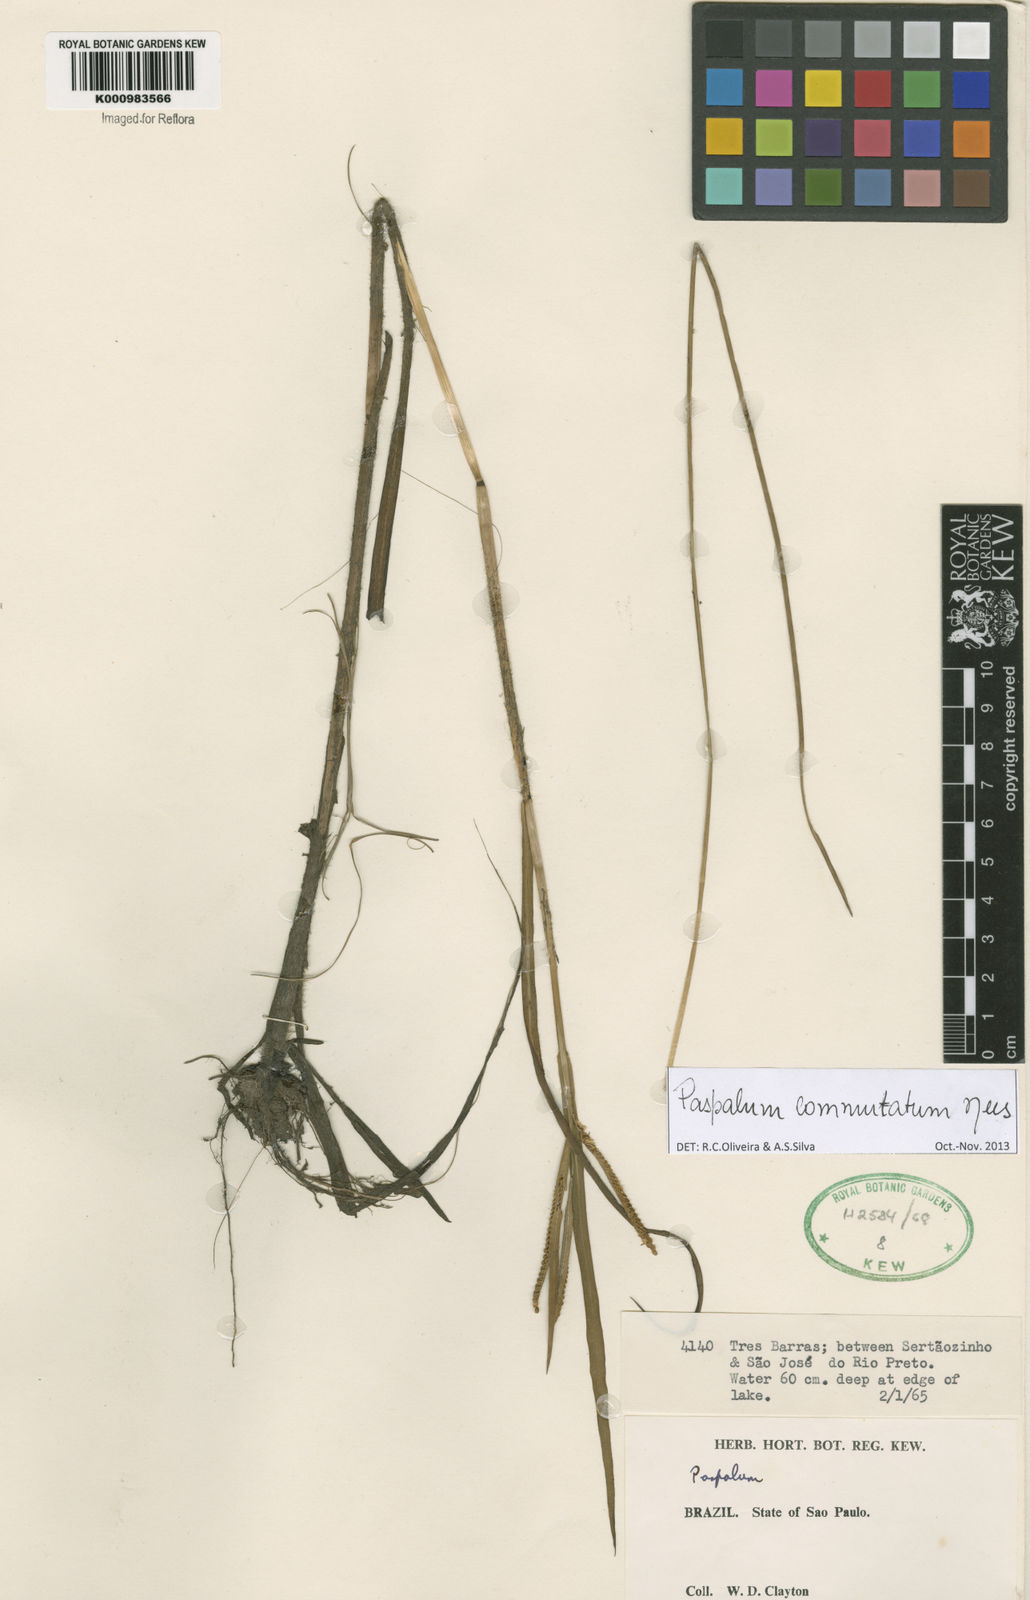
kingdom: Plantae
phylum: Tracheophyta
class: Liliopsida
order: Poales
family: Poaceae
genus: Paspalum
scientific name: Paspalum scrobiculatum
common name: Kodo millet
